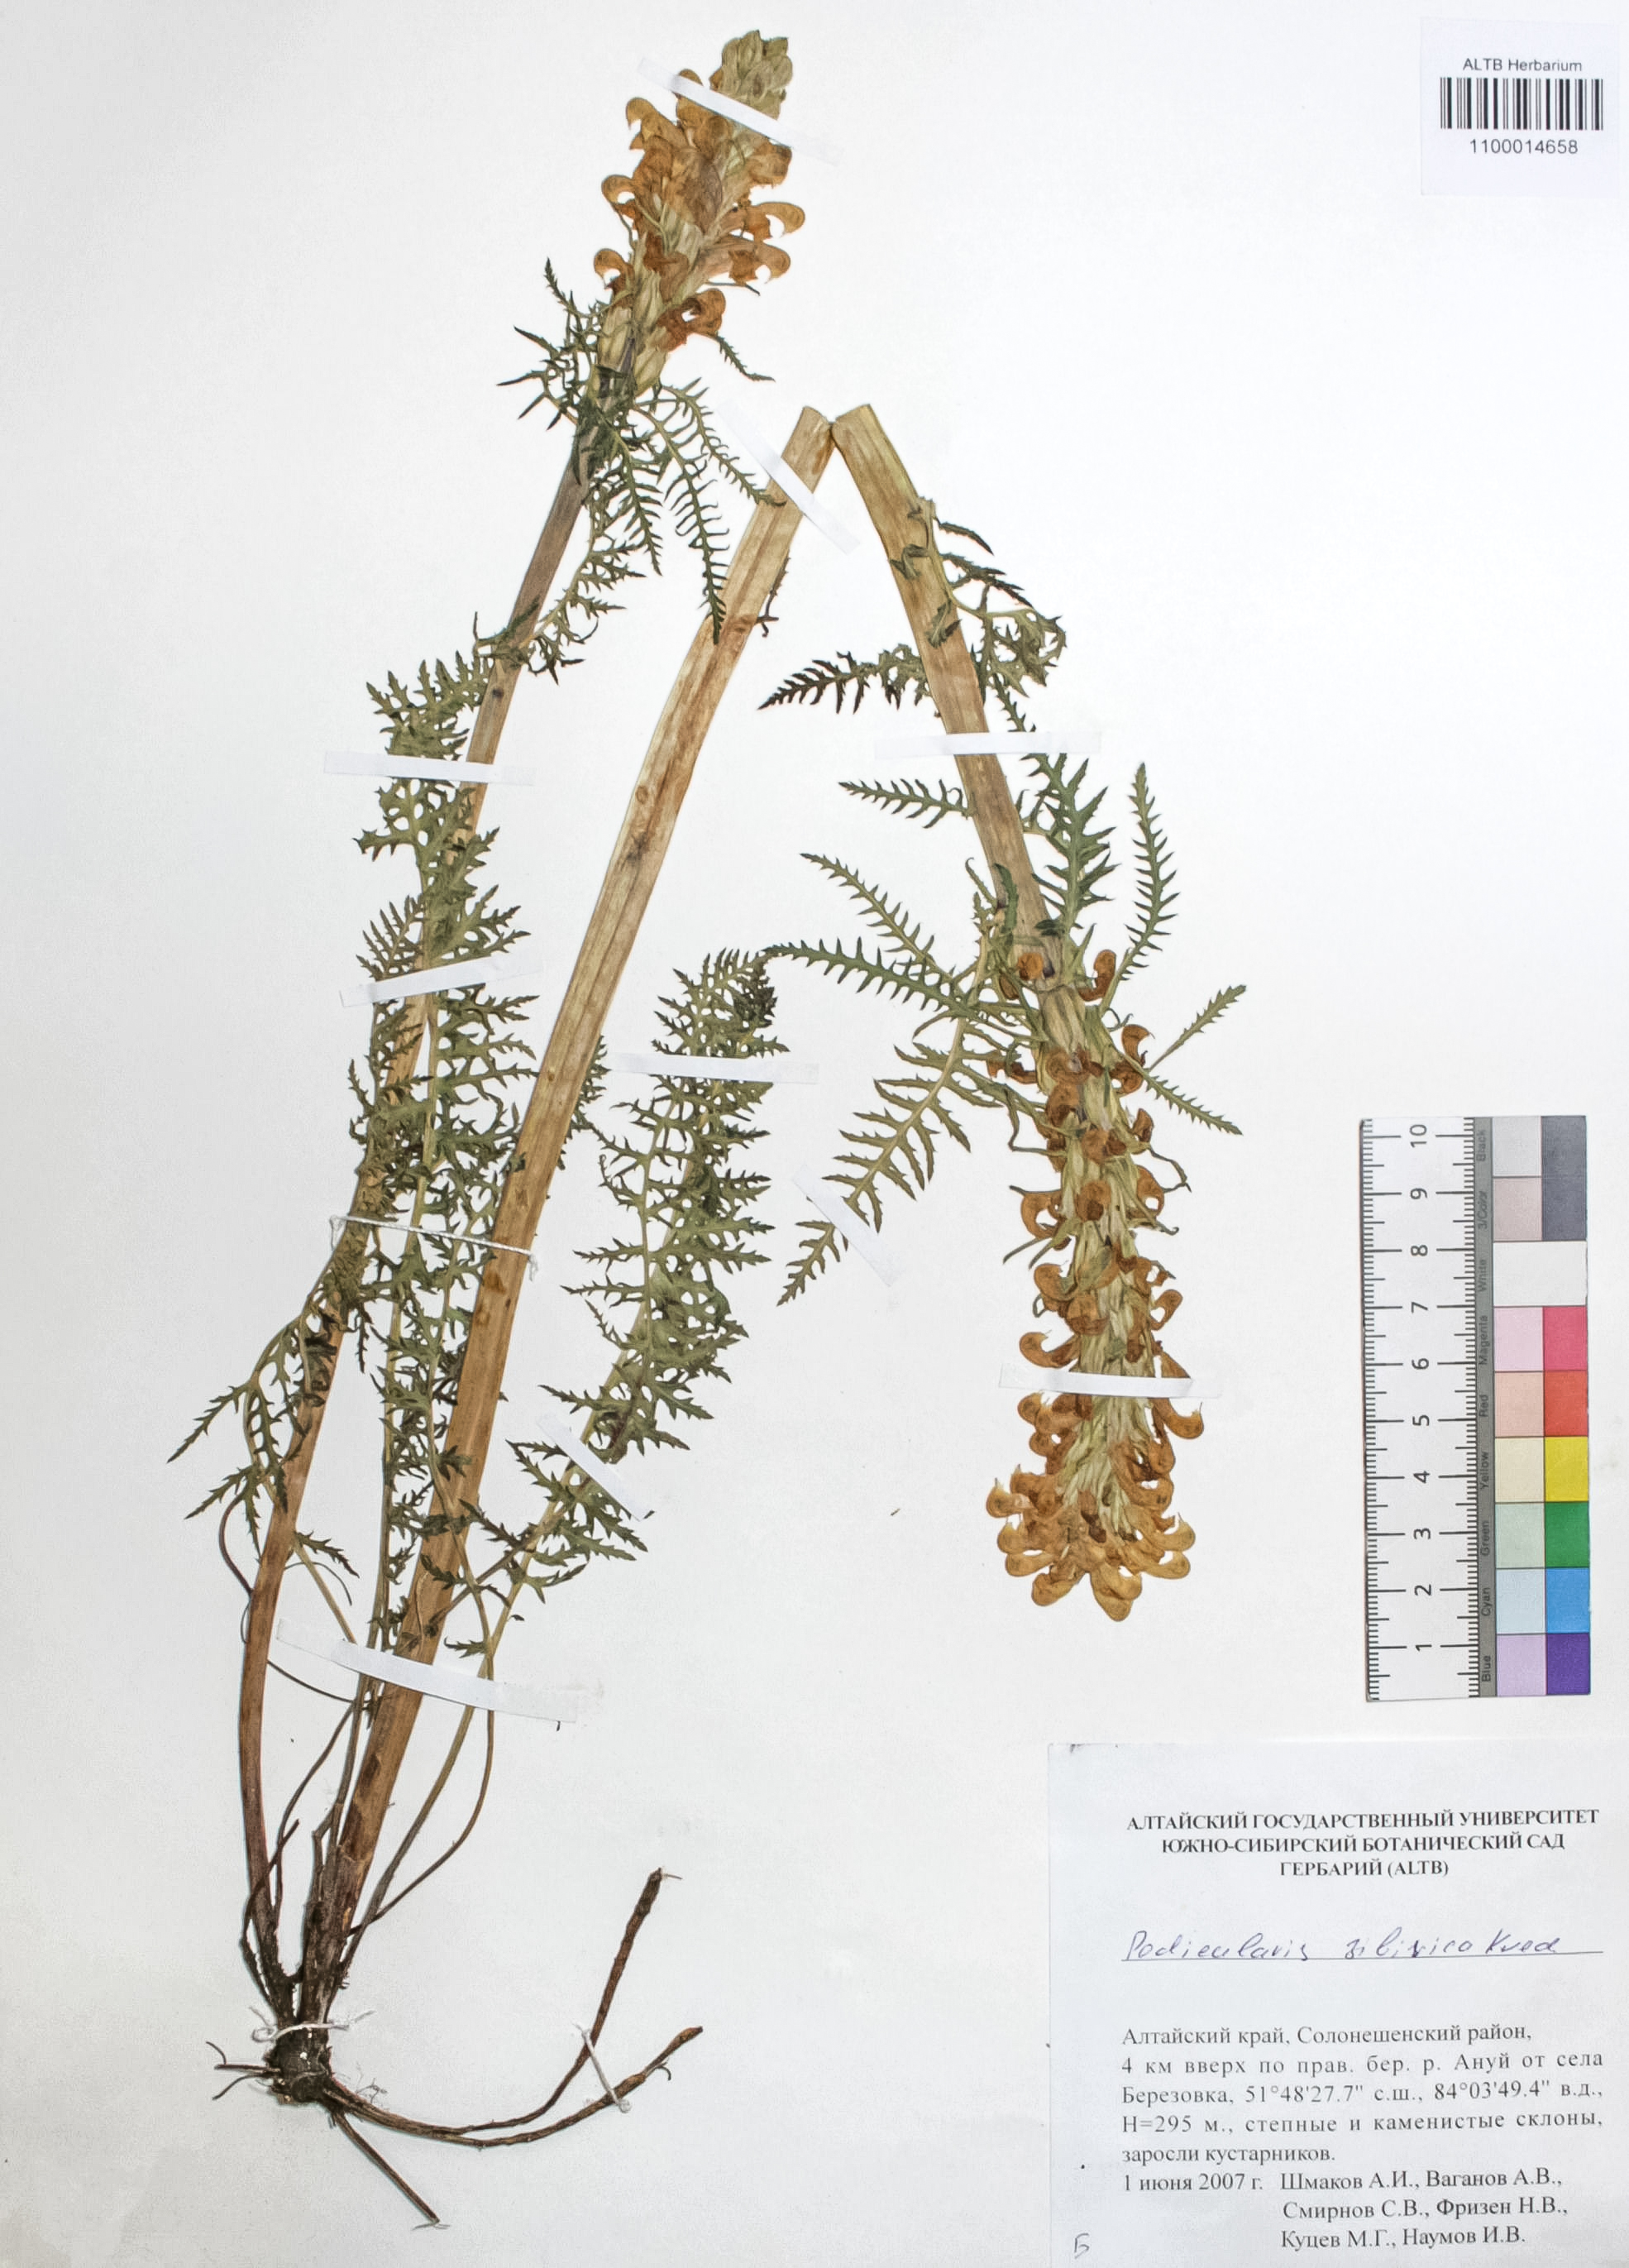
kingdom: Plantae
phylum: Tracheophyta
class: Magnoliopsida
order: Lamiales
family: Orobanchaceae
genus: Pedicularis
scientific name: Pedicularis sibirica
